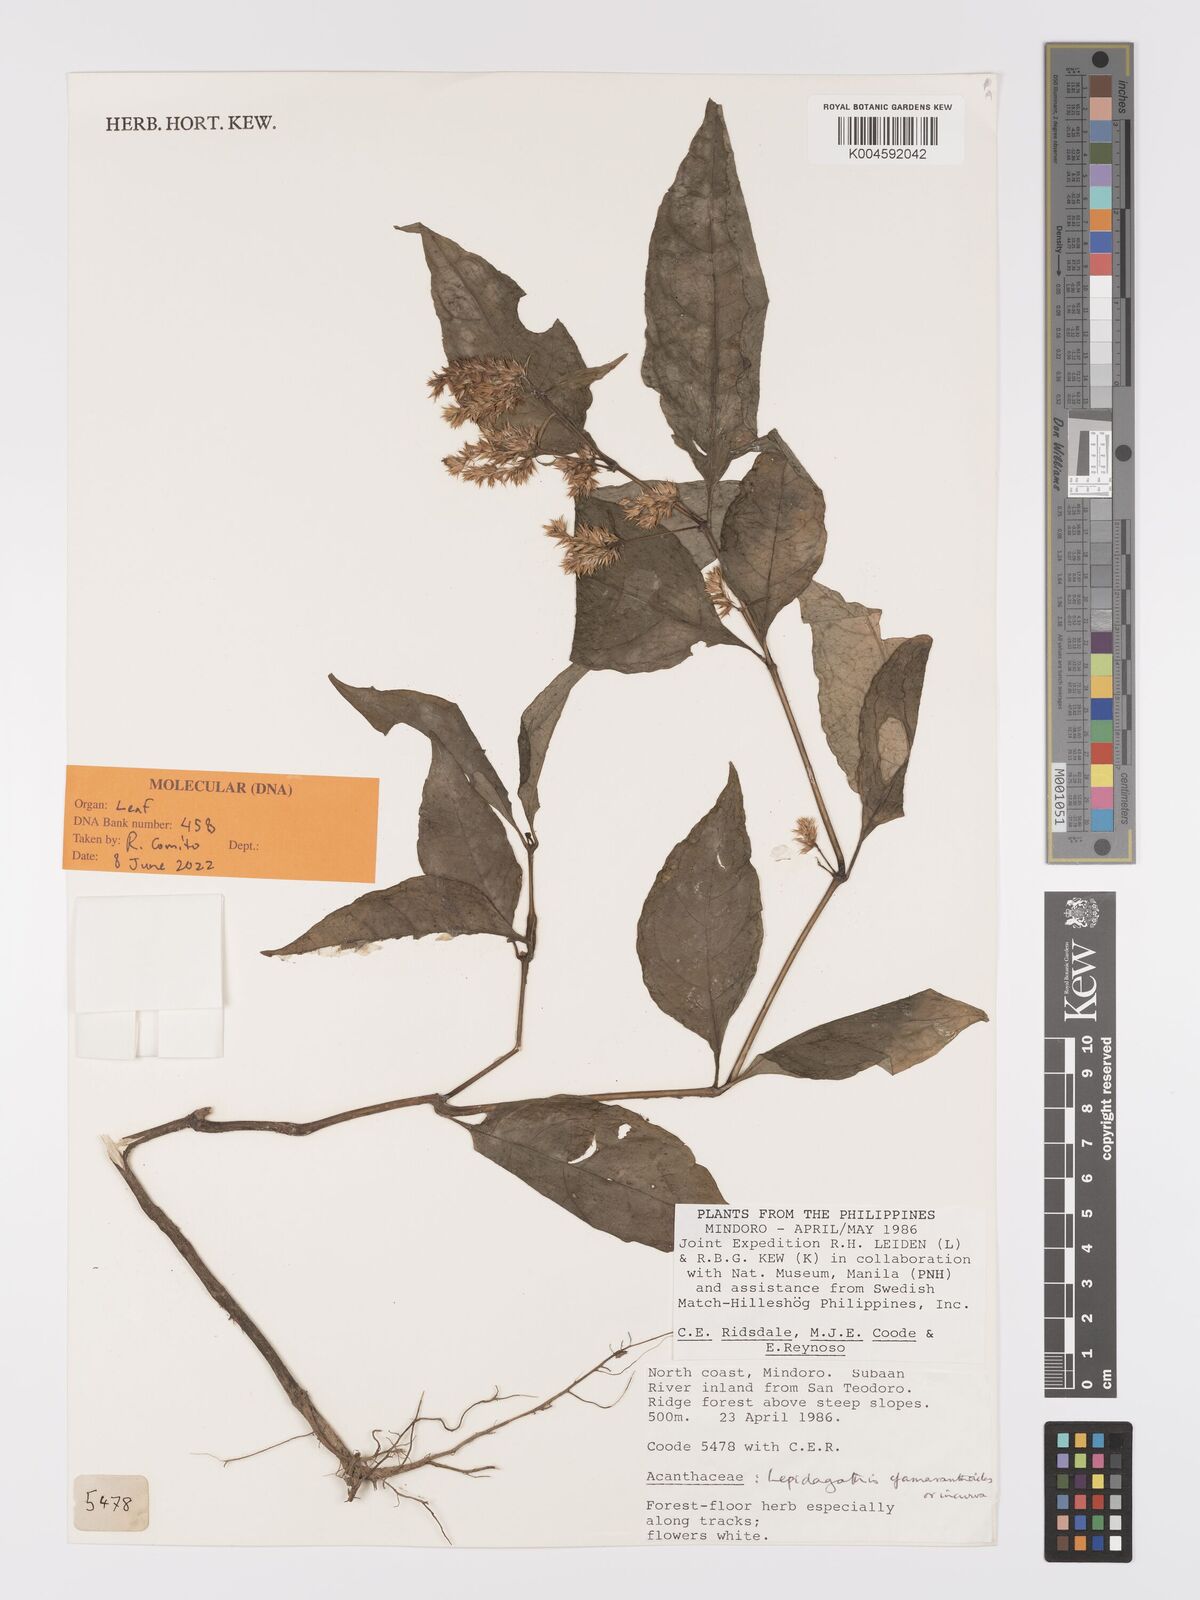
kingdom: Plantae
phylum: Tracheophyta
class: Magnoliopsida
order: Lamiales
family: Acanthaceae
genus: Lepidagathis
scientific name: Lepidagathis amaranthoides
